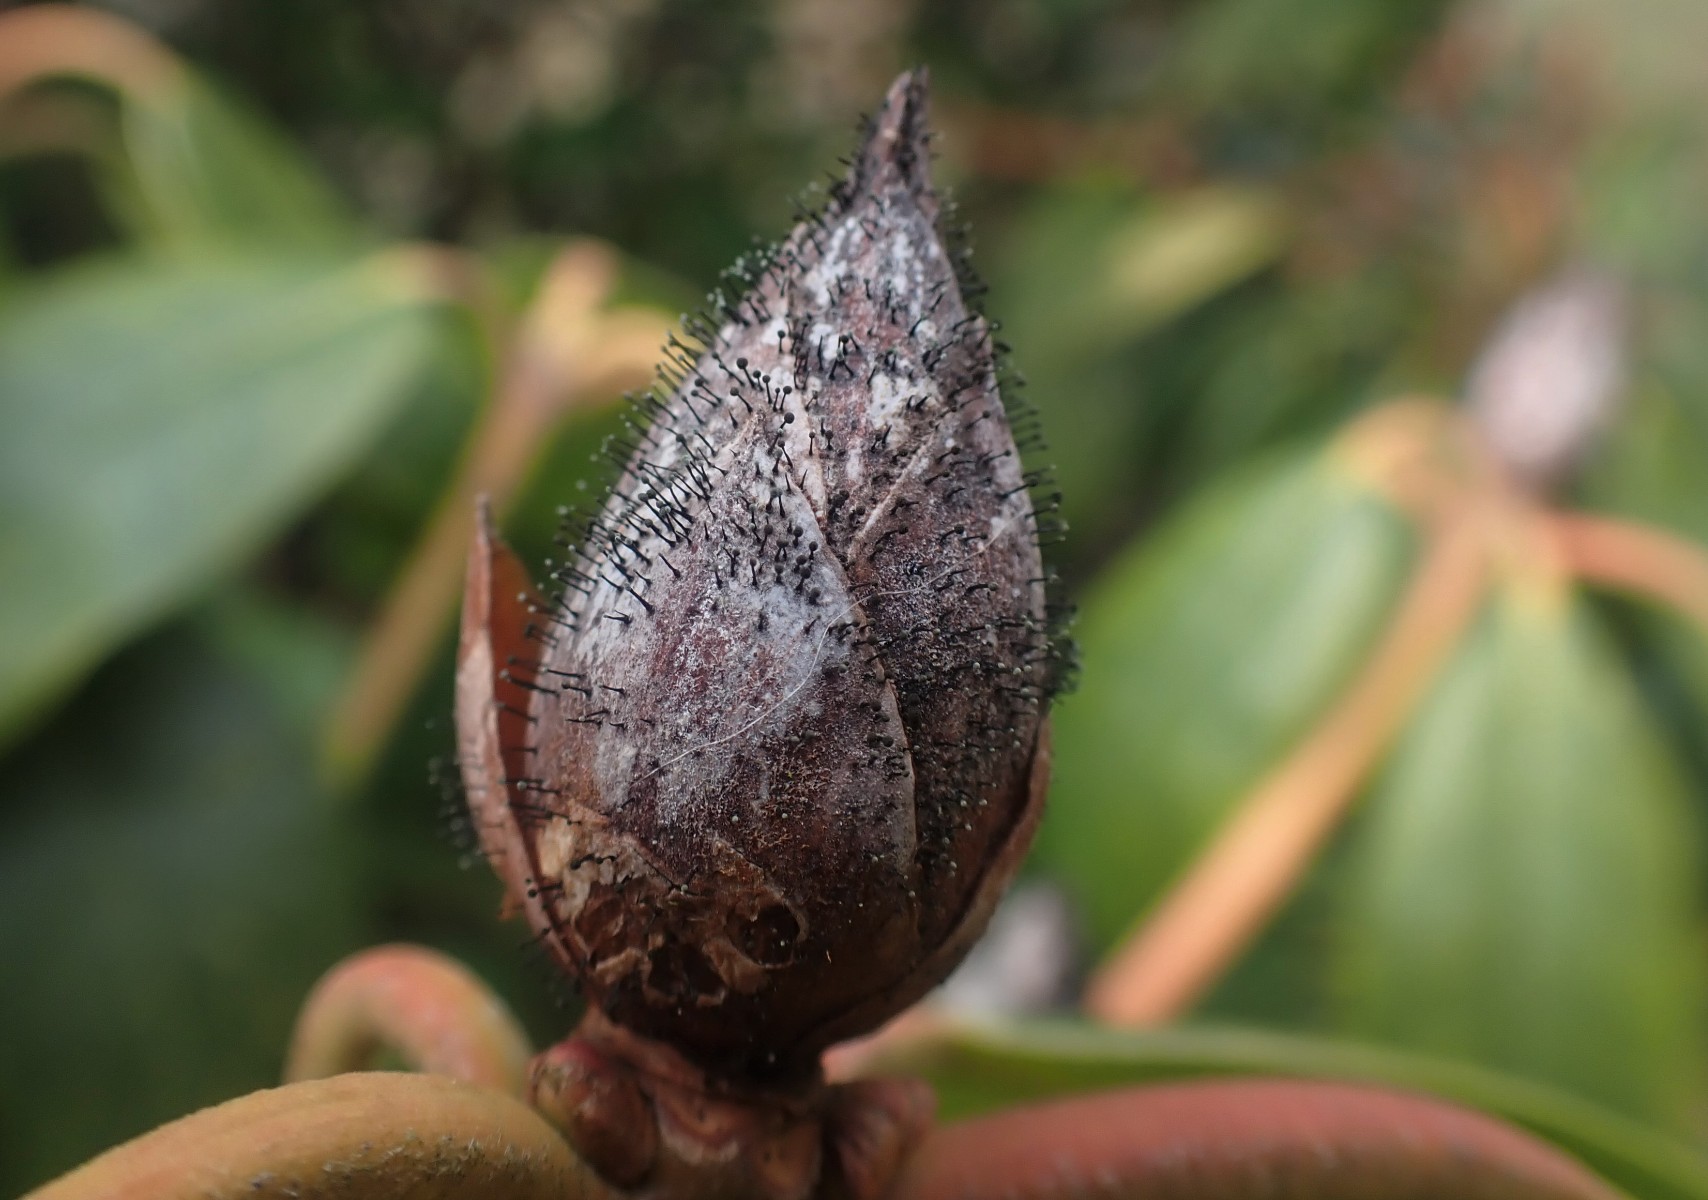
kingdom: Fungi
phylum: Ascomycota
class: Dothideomycetes
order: Pleosporales
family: Melanommataceae
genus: Seifertia
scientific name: Seifertia azaleae
